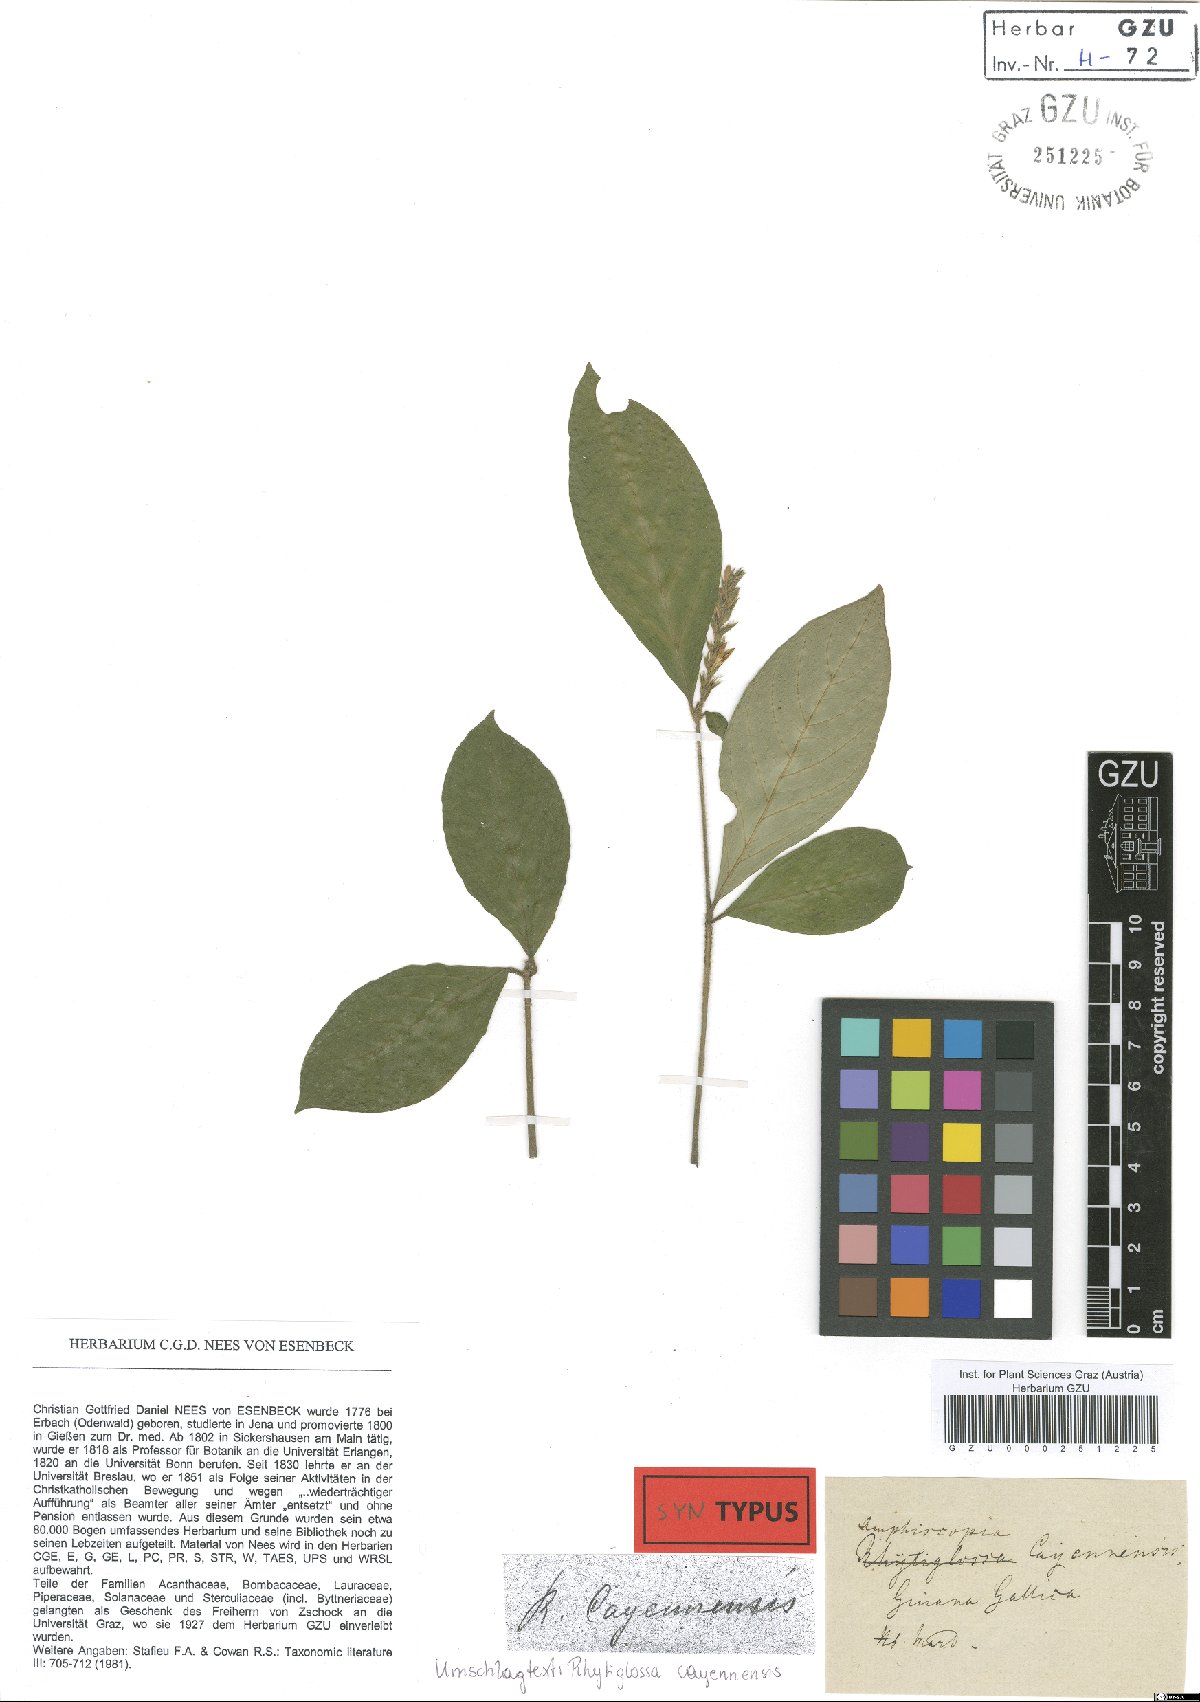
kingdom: Plantae
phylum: Tracheophyta
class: Magnoliopsida
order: Lamiales
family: Acanthaceae
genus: Dianthera
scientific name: Dianthera cayennensis
